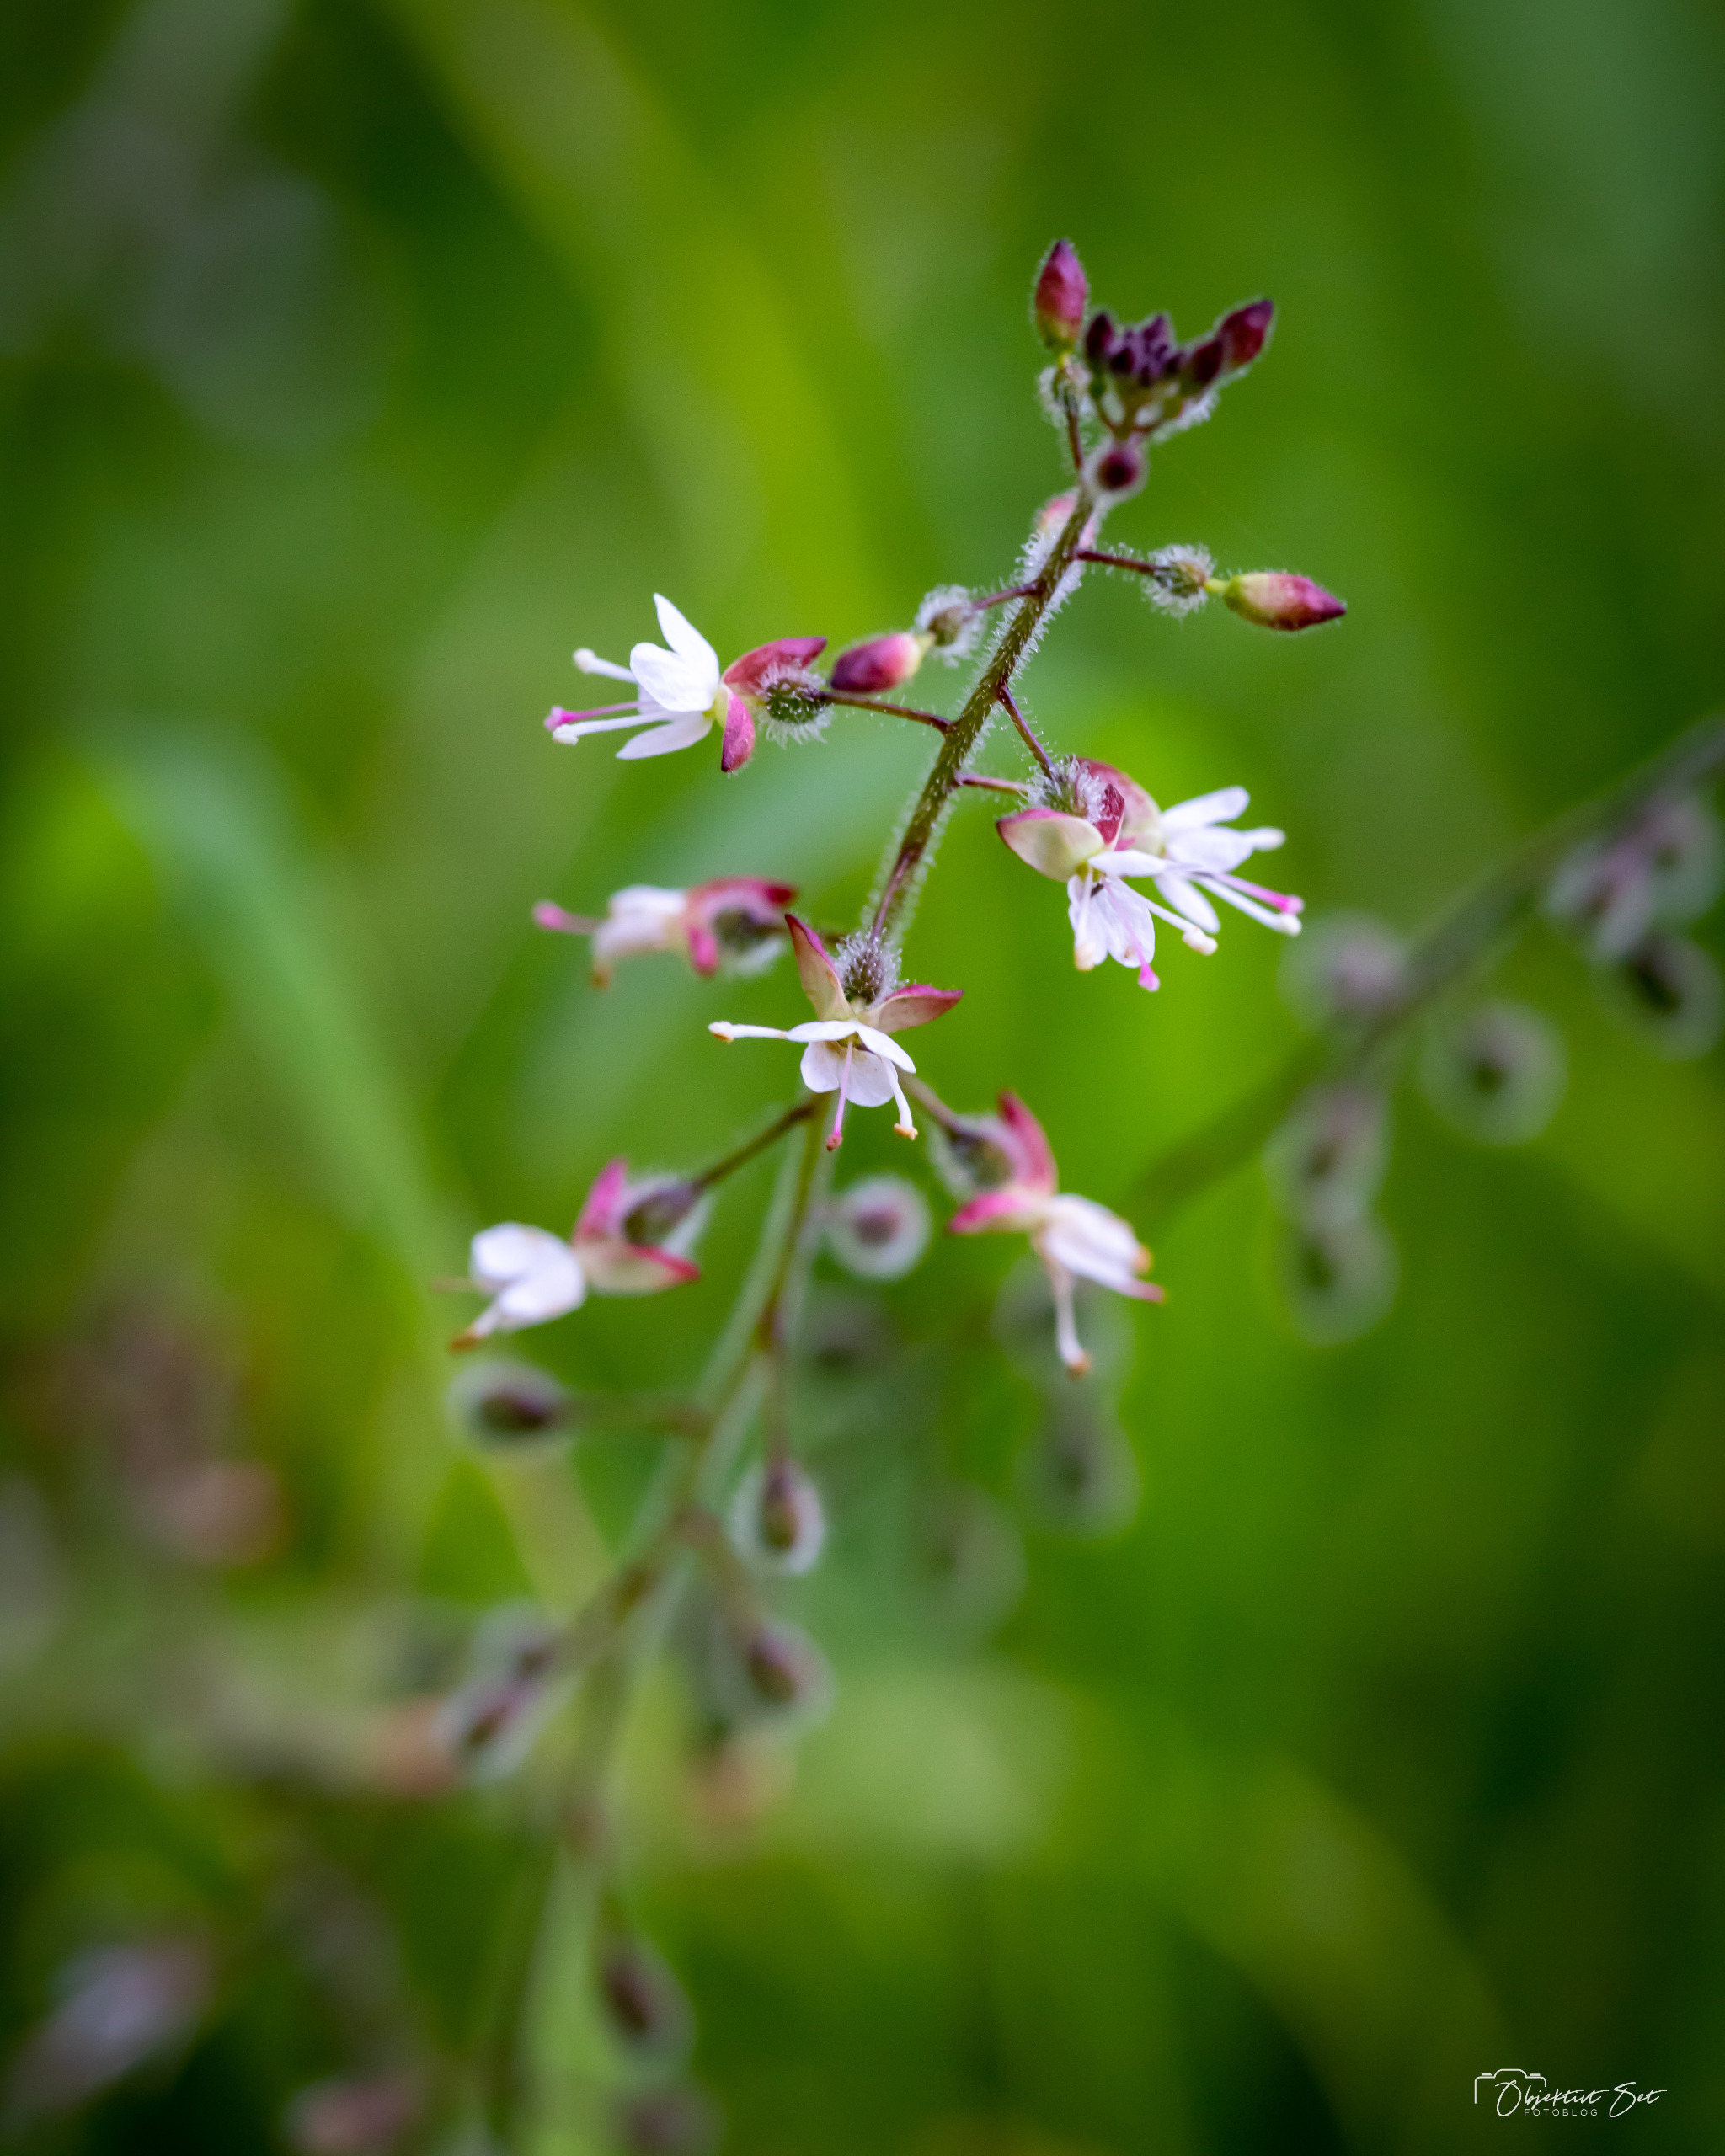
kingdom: Plantae
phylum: Tracheophyta
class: Magnoliopsida
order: Myrtales
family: Onagraceae
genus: Circaea
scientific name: Circaea lutetiana
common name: Dunet steffensurt
